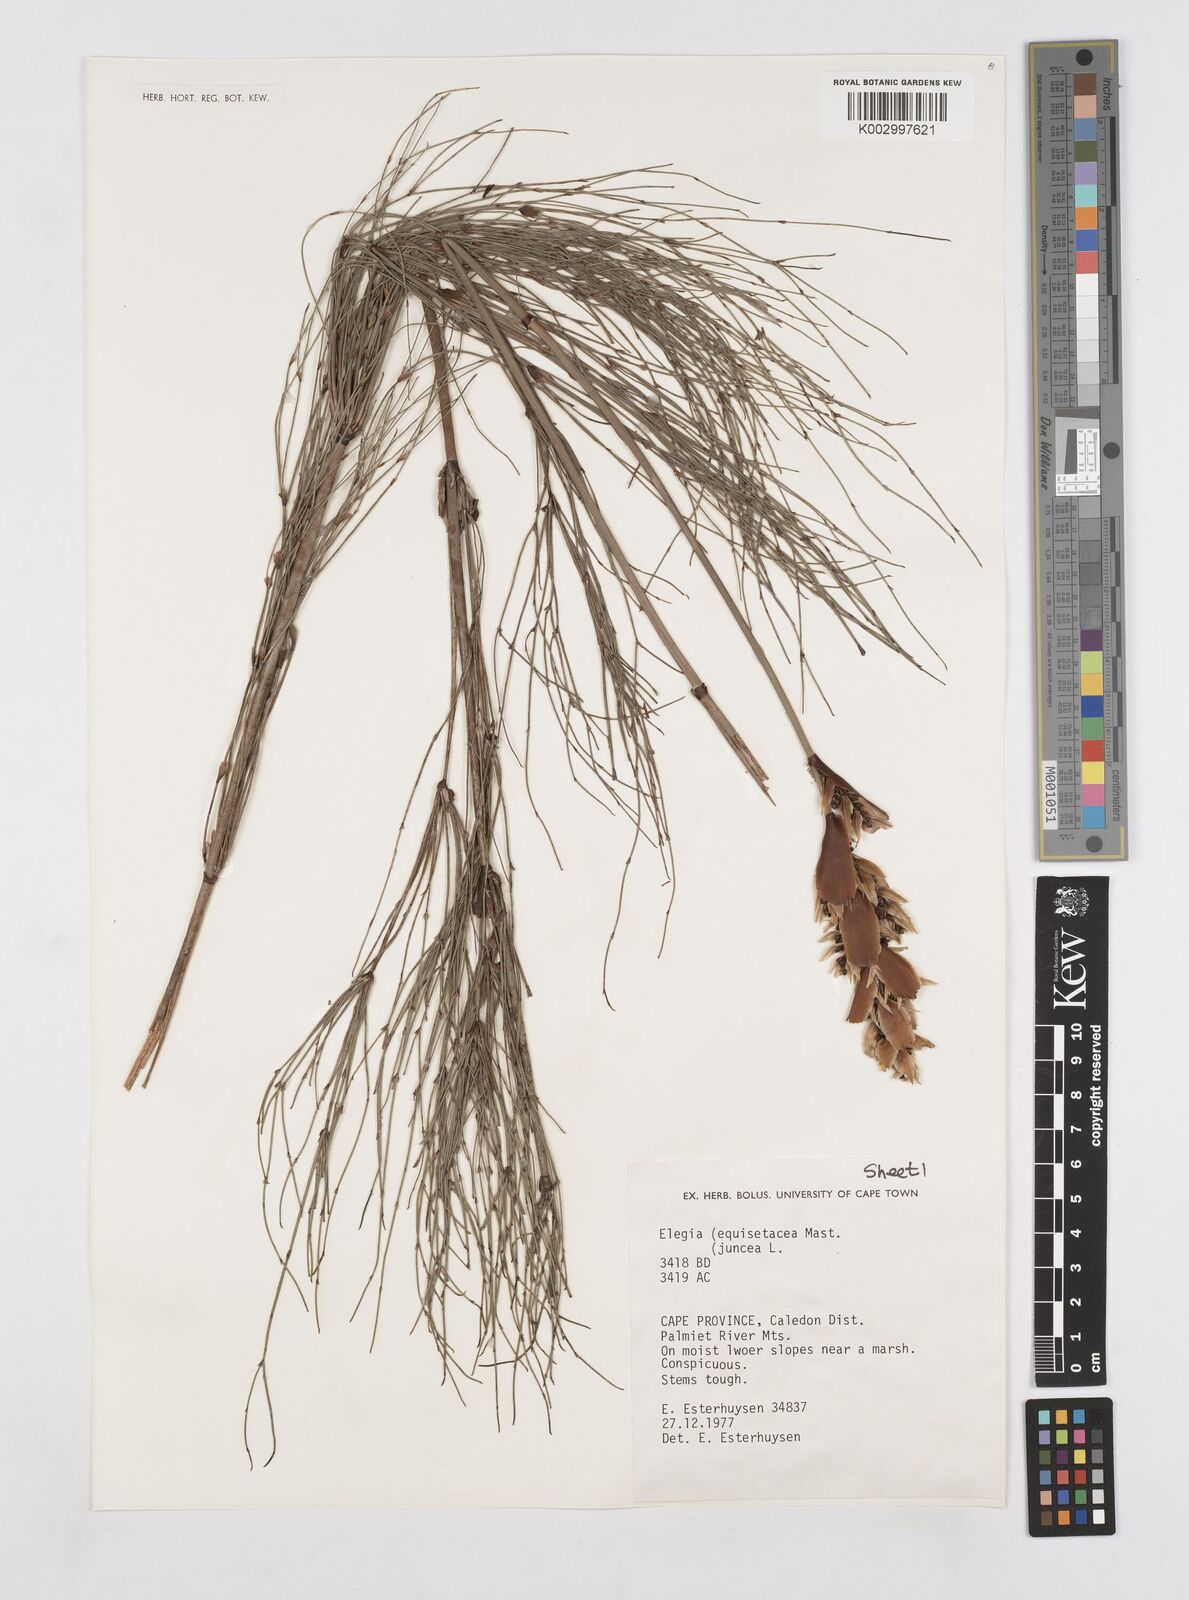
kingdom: Plantae
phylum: Tracheophyta
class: Liliopsida
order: Poales
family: Restionaceae
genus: Elegia
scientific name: Elegia equisetacea
